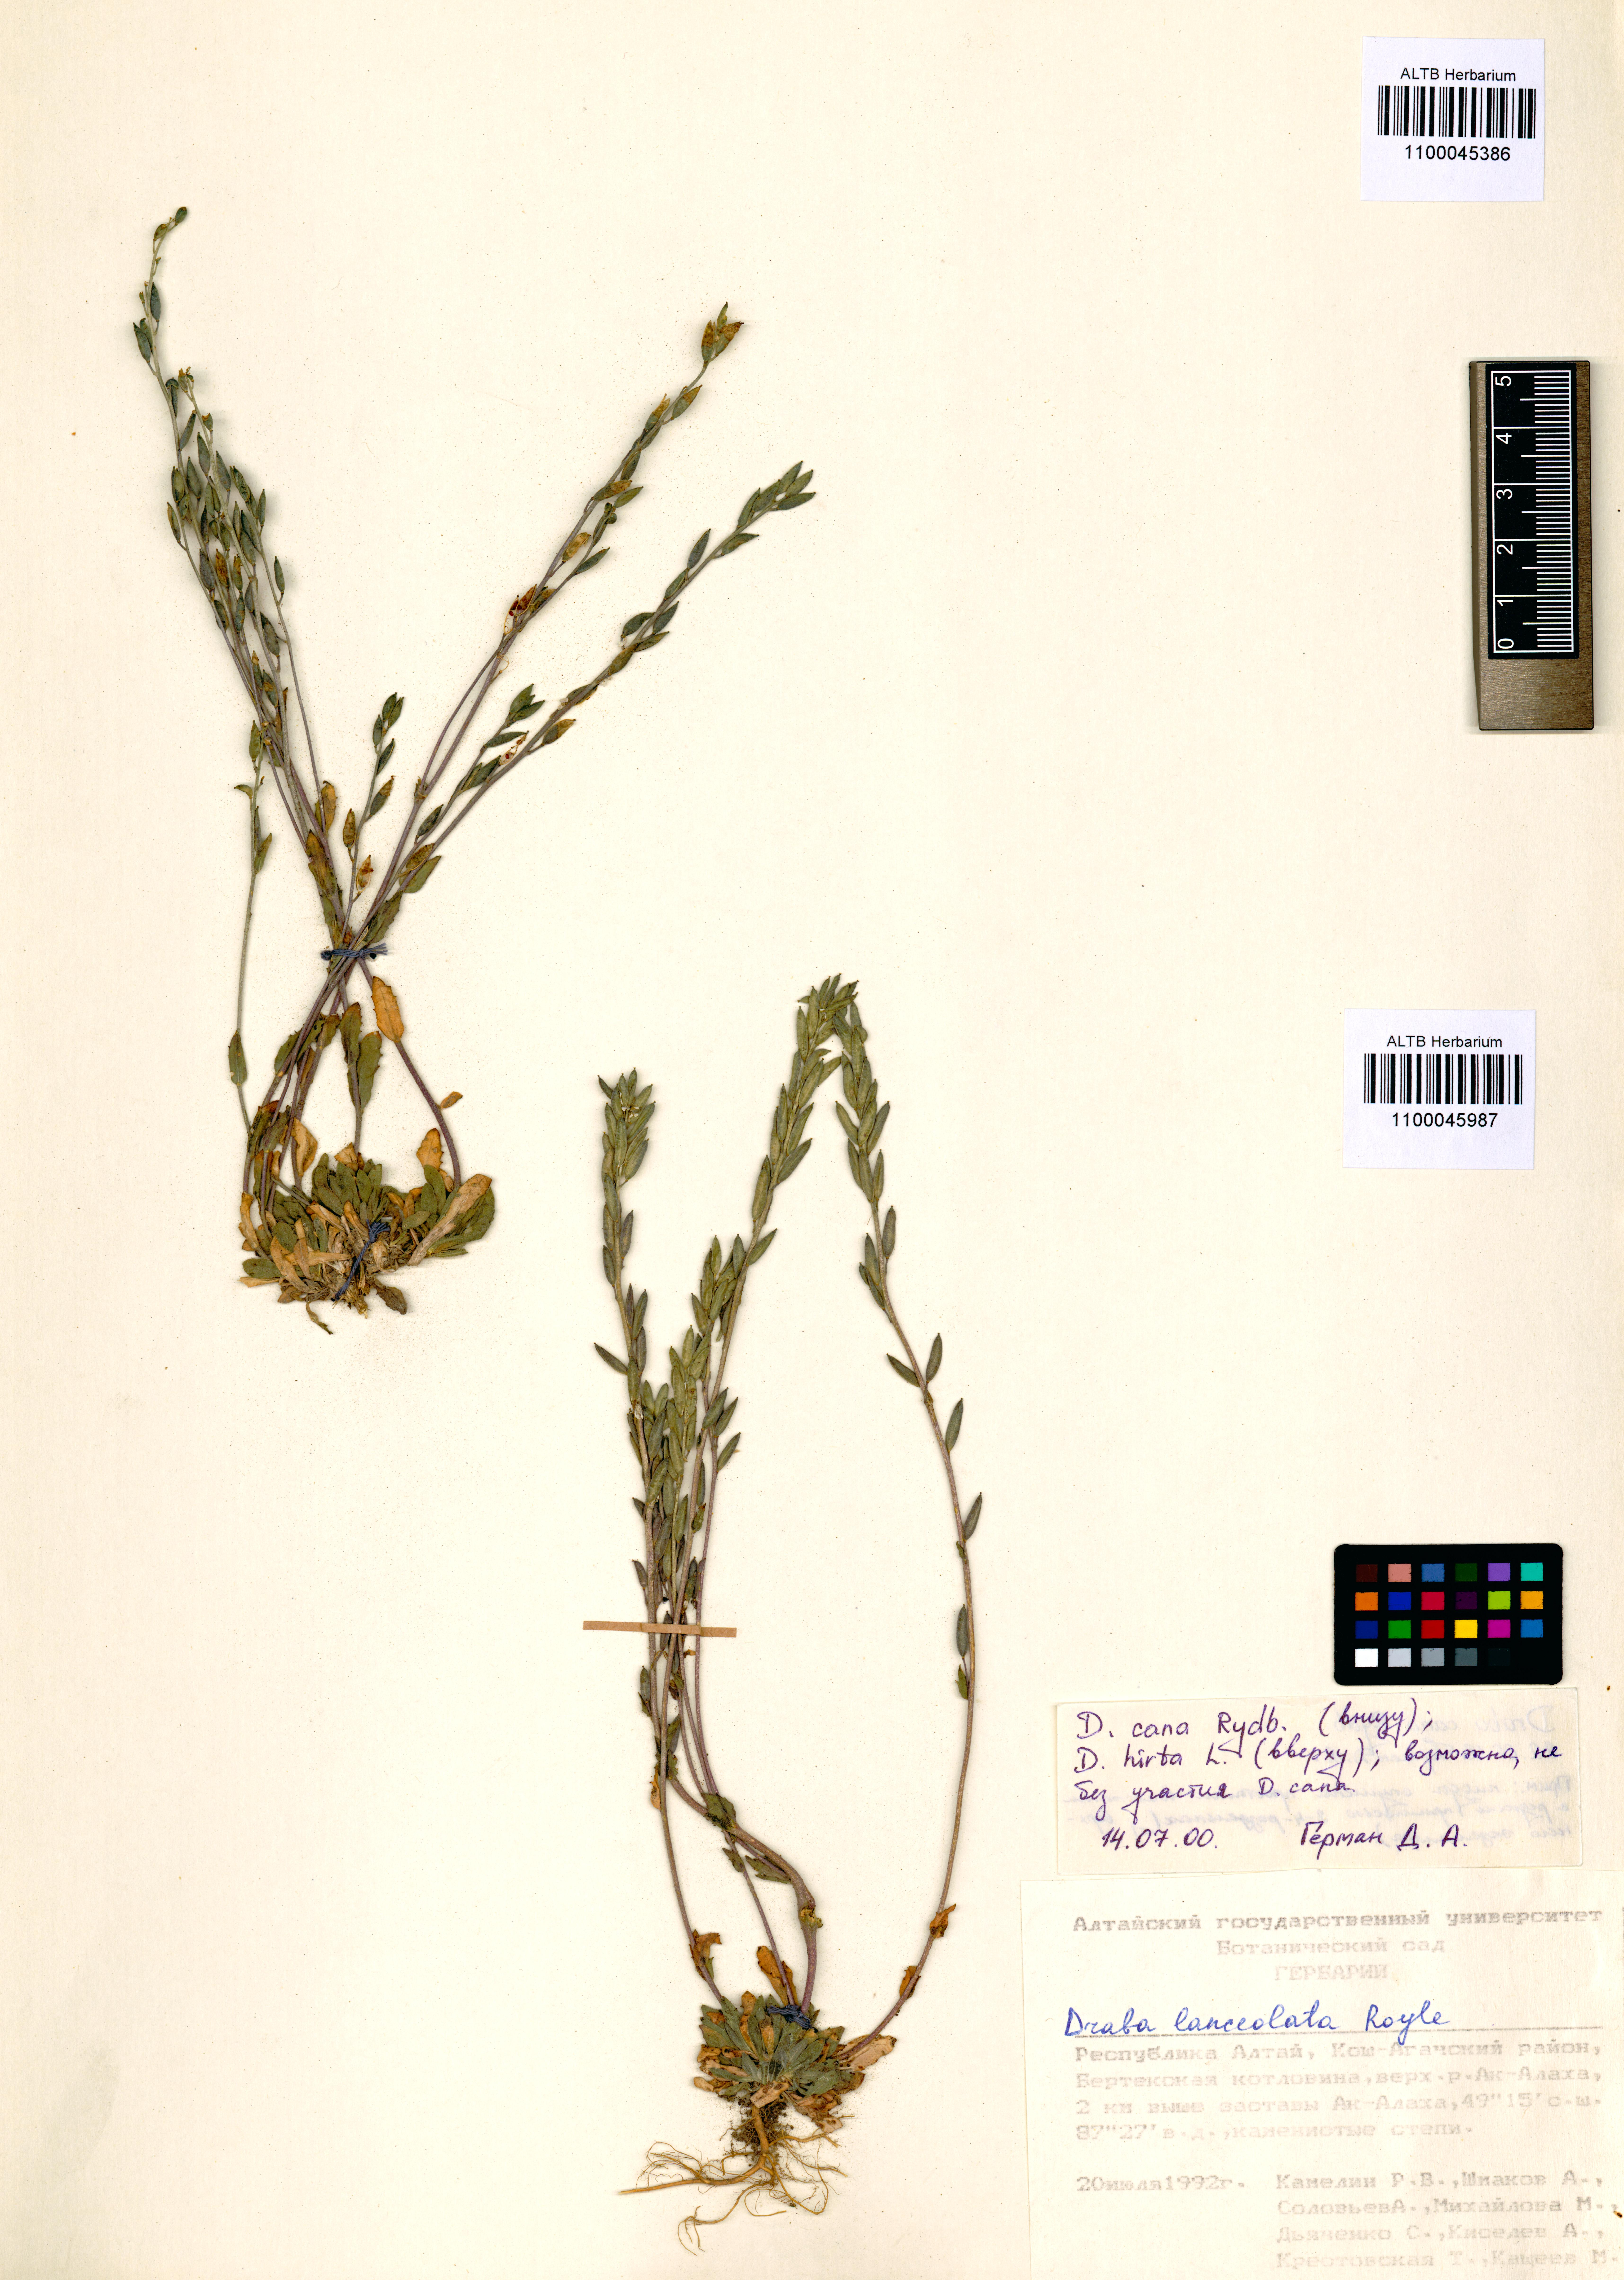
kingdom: Plantae
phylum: Tracheophyta
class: Magnoliopsida
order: Brassicales
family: Brassicaceae
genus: Draba
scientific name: Draba glabella
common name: Glaucous draba
